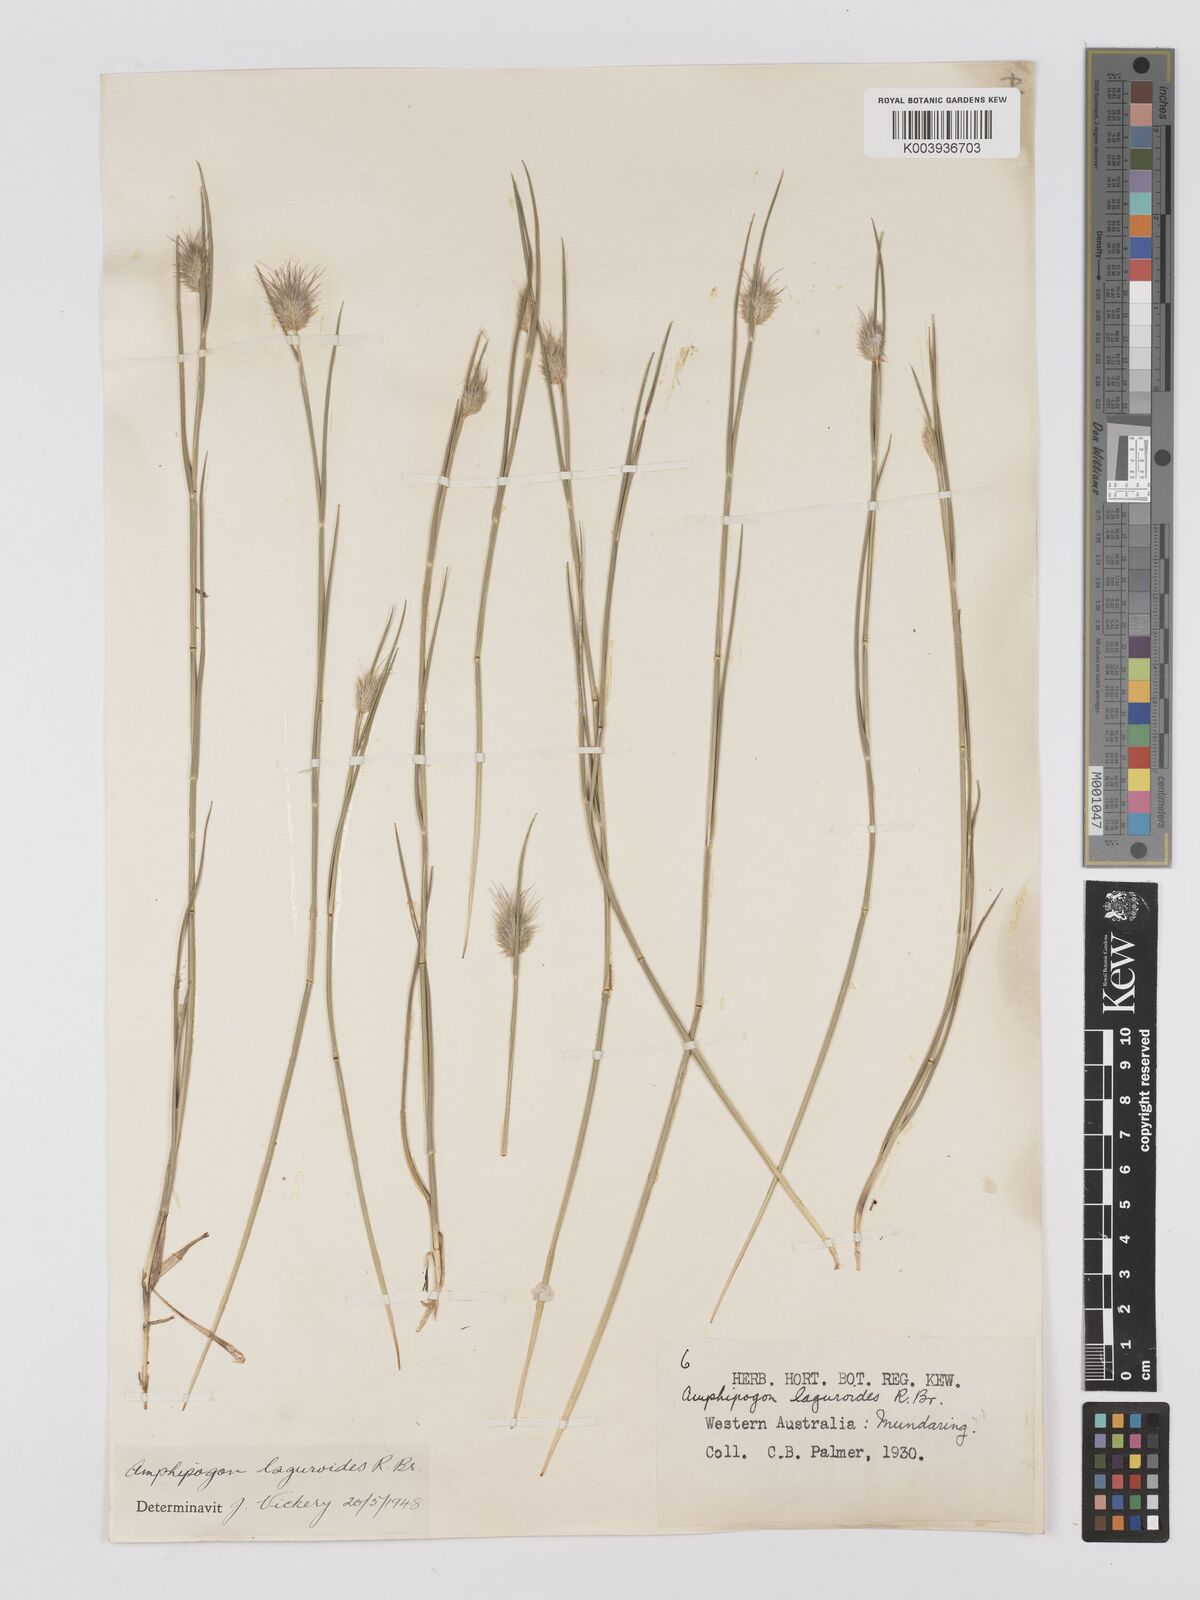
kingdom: Plantae
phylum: Tracheophyta
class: Liliopsida
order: Poales
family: Poaceae
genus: Amphipogon
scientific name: Amphipogon laguroides
